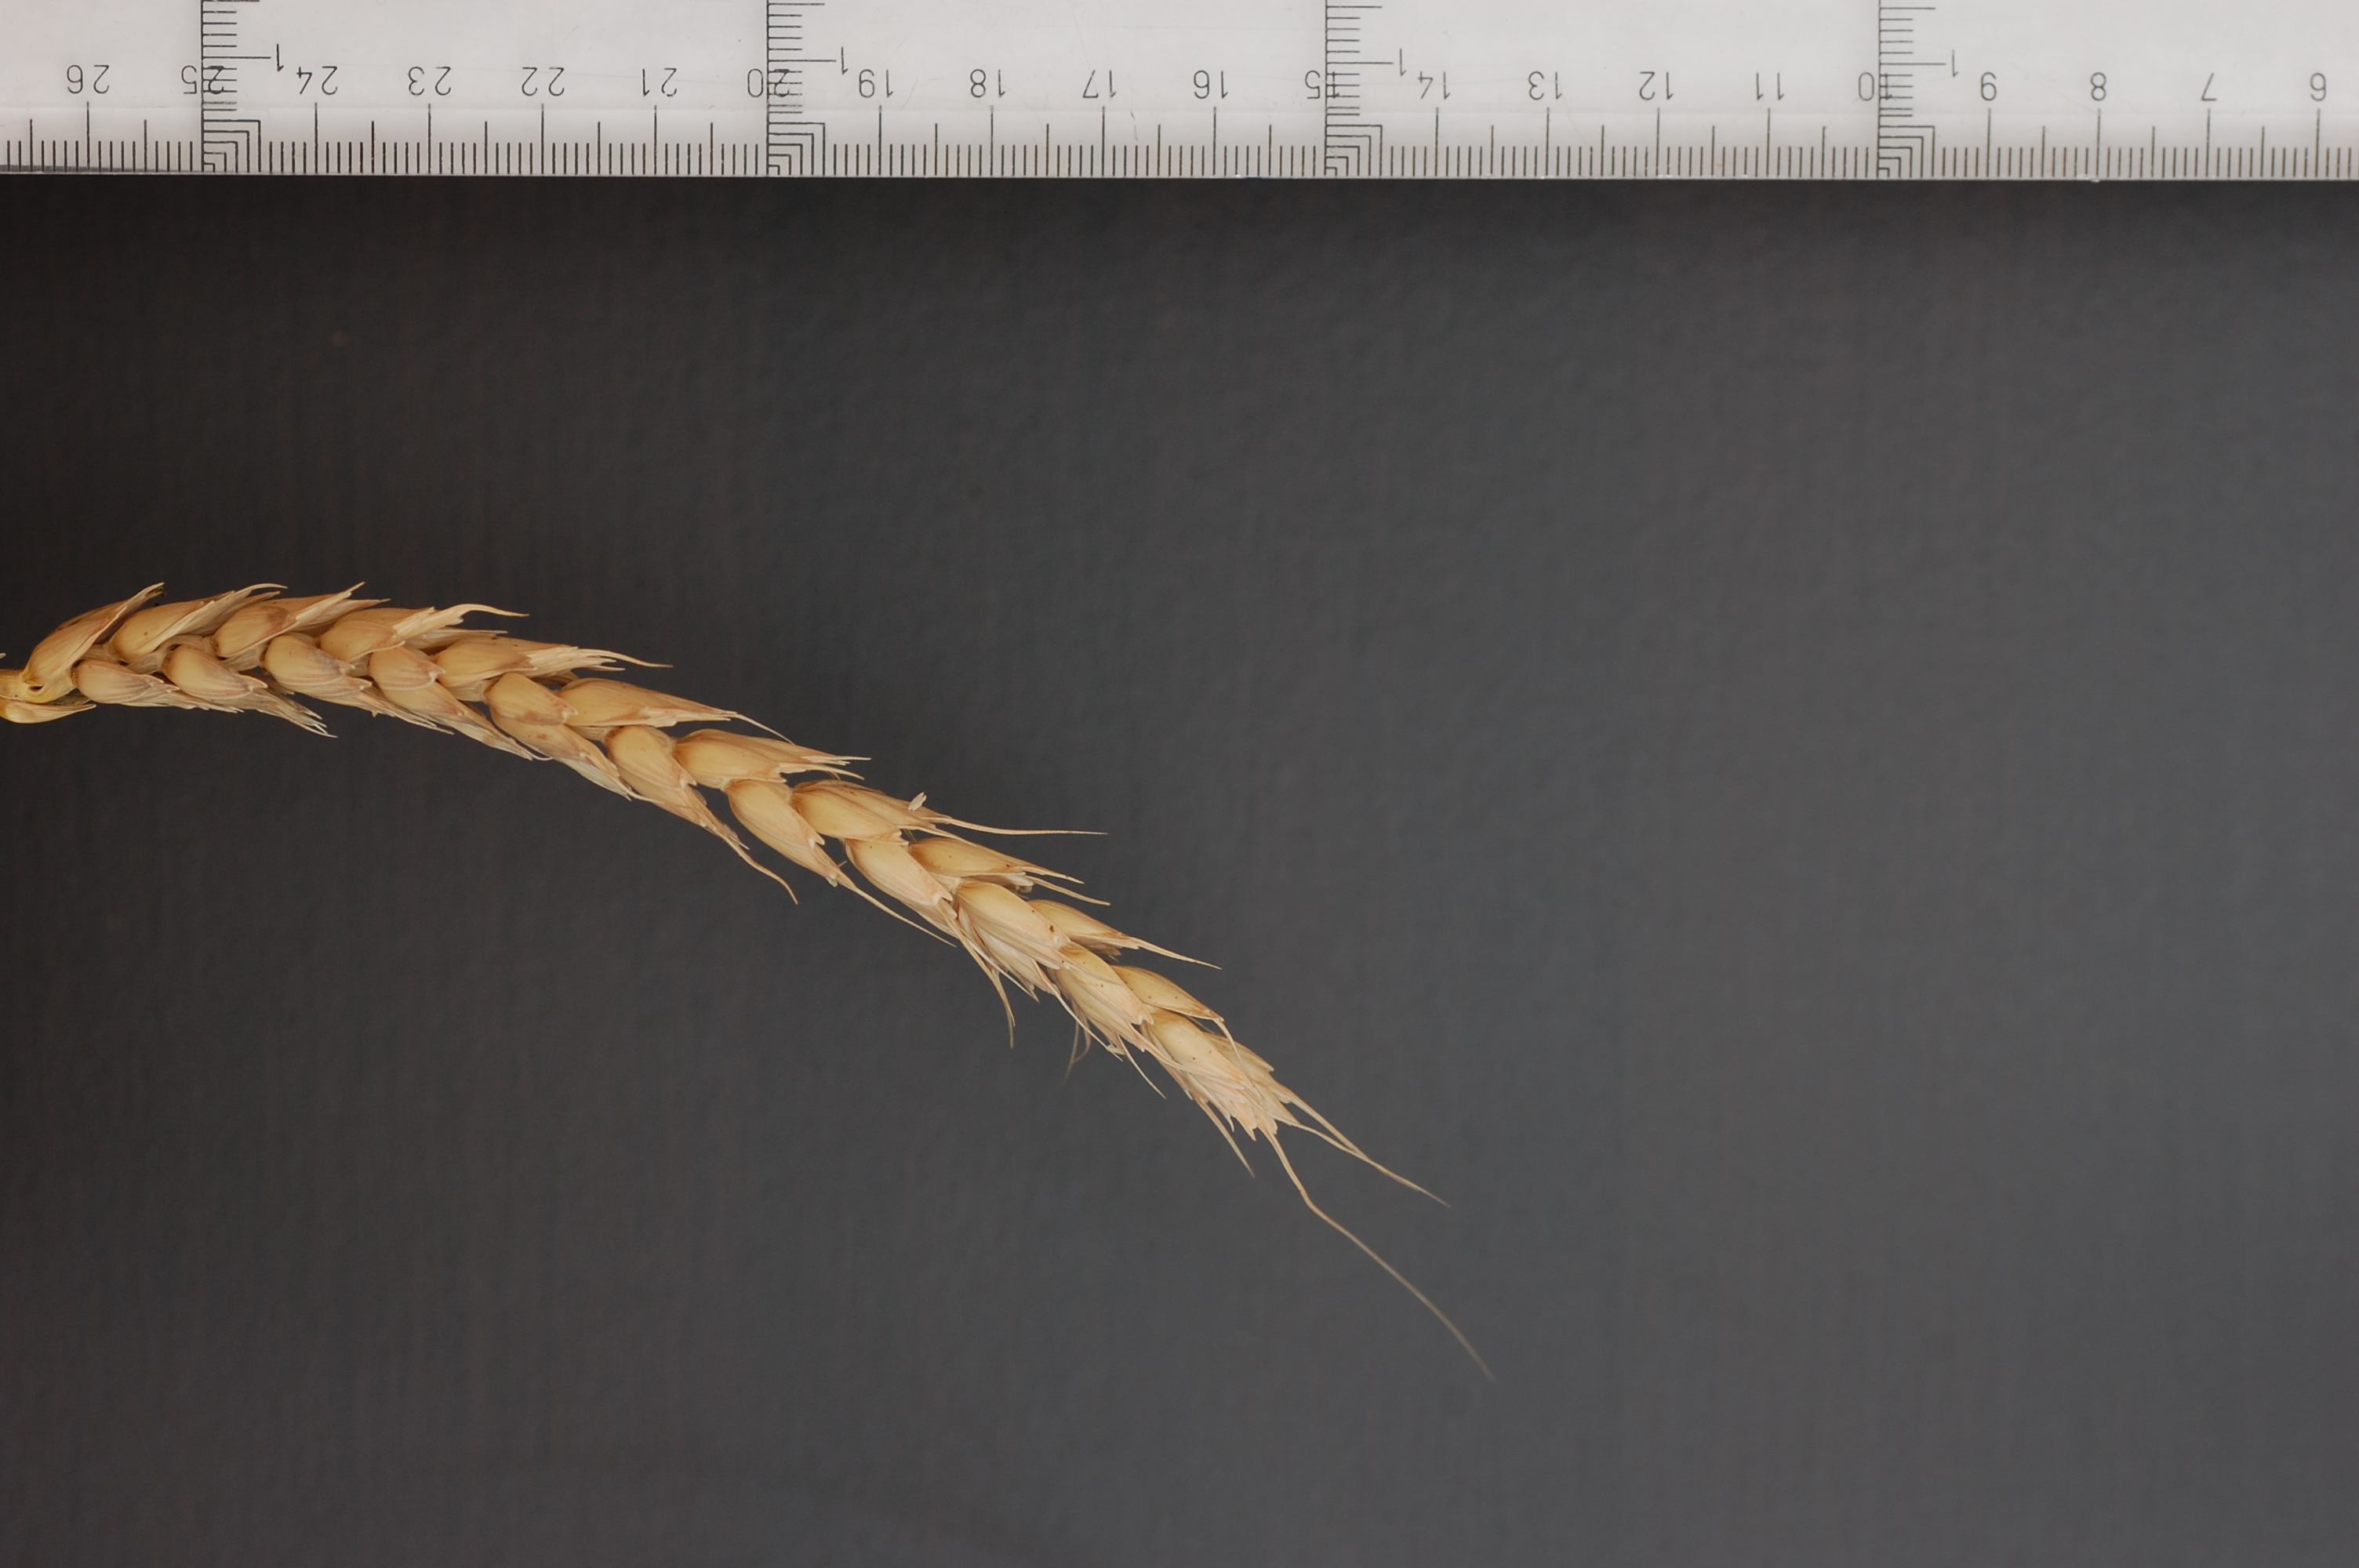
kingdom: Plantae
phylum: Tracheophyta
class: Liliopsida
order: Poales
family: Poaceae
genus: Triticum
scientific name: Triticum aestivum
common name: Common wheat
